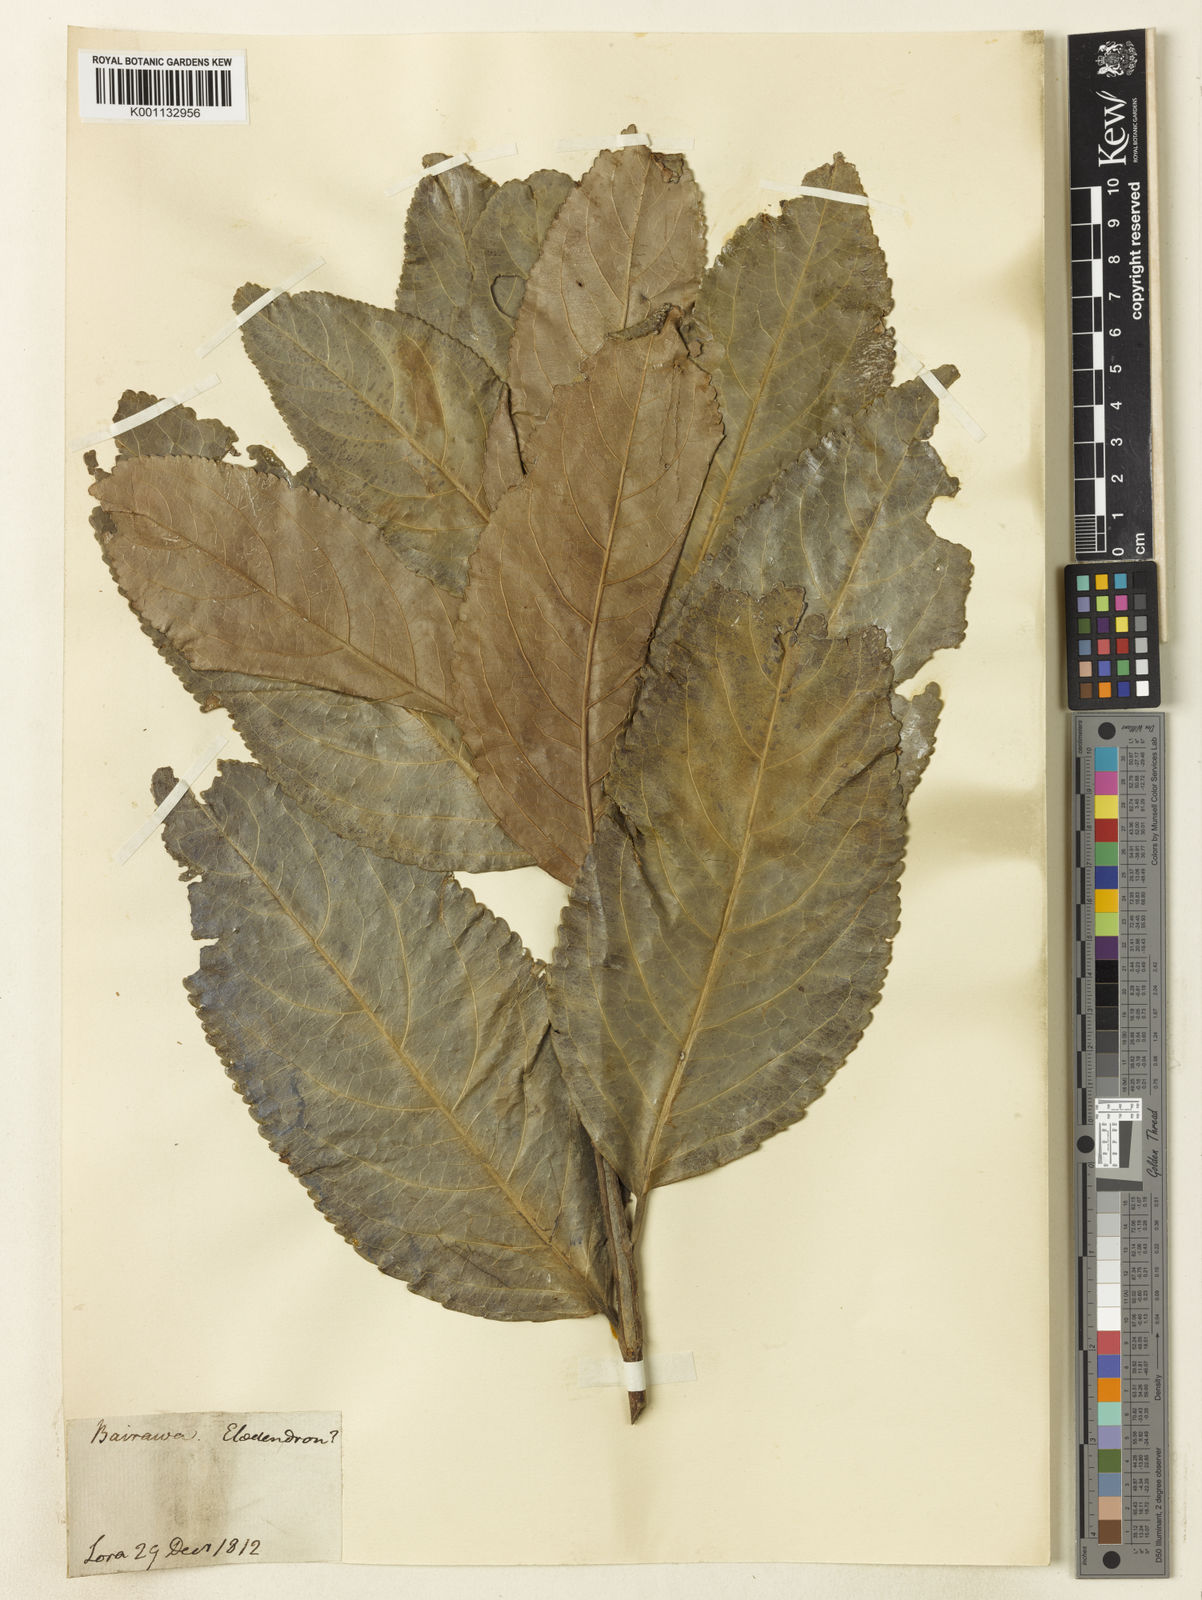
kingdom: Plantae
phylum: Tracheophyta
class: Magnoliopsida
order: Celastrales
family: Celastraceae
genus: Elaeodendron
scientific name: Elaeodendron
